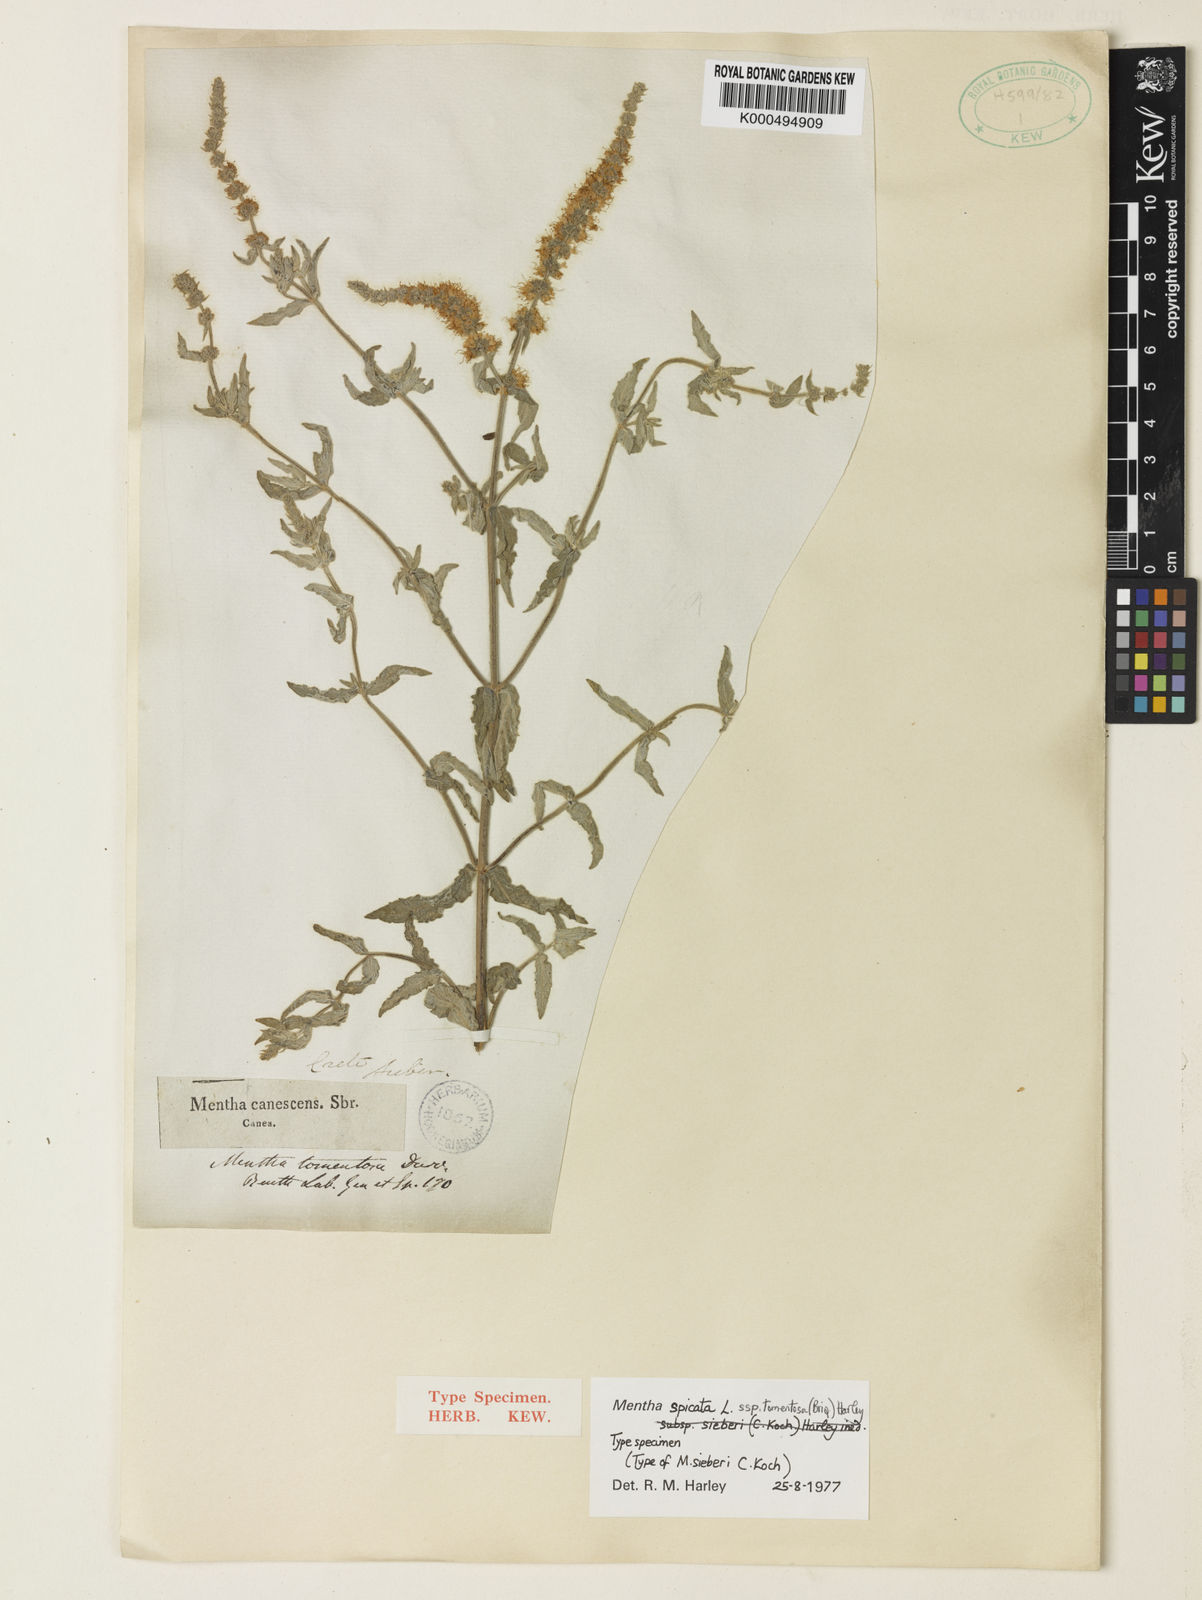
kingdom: Plantae
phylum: Tracheophyta
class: Magnoliopsida
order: Lamiales
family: Lamiaceae
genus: Mentha
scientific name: Mentha spicata
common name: Spearmint
